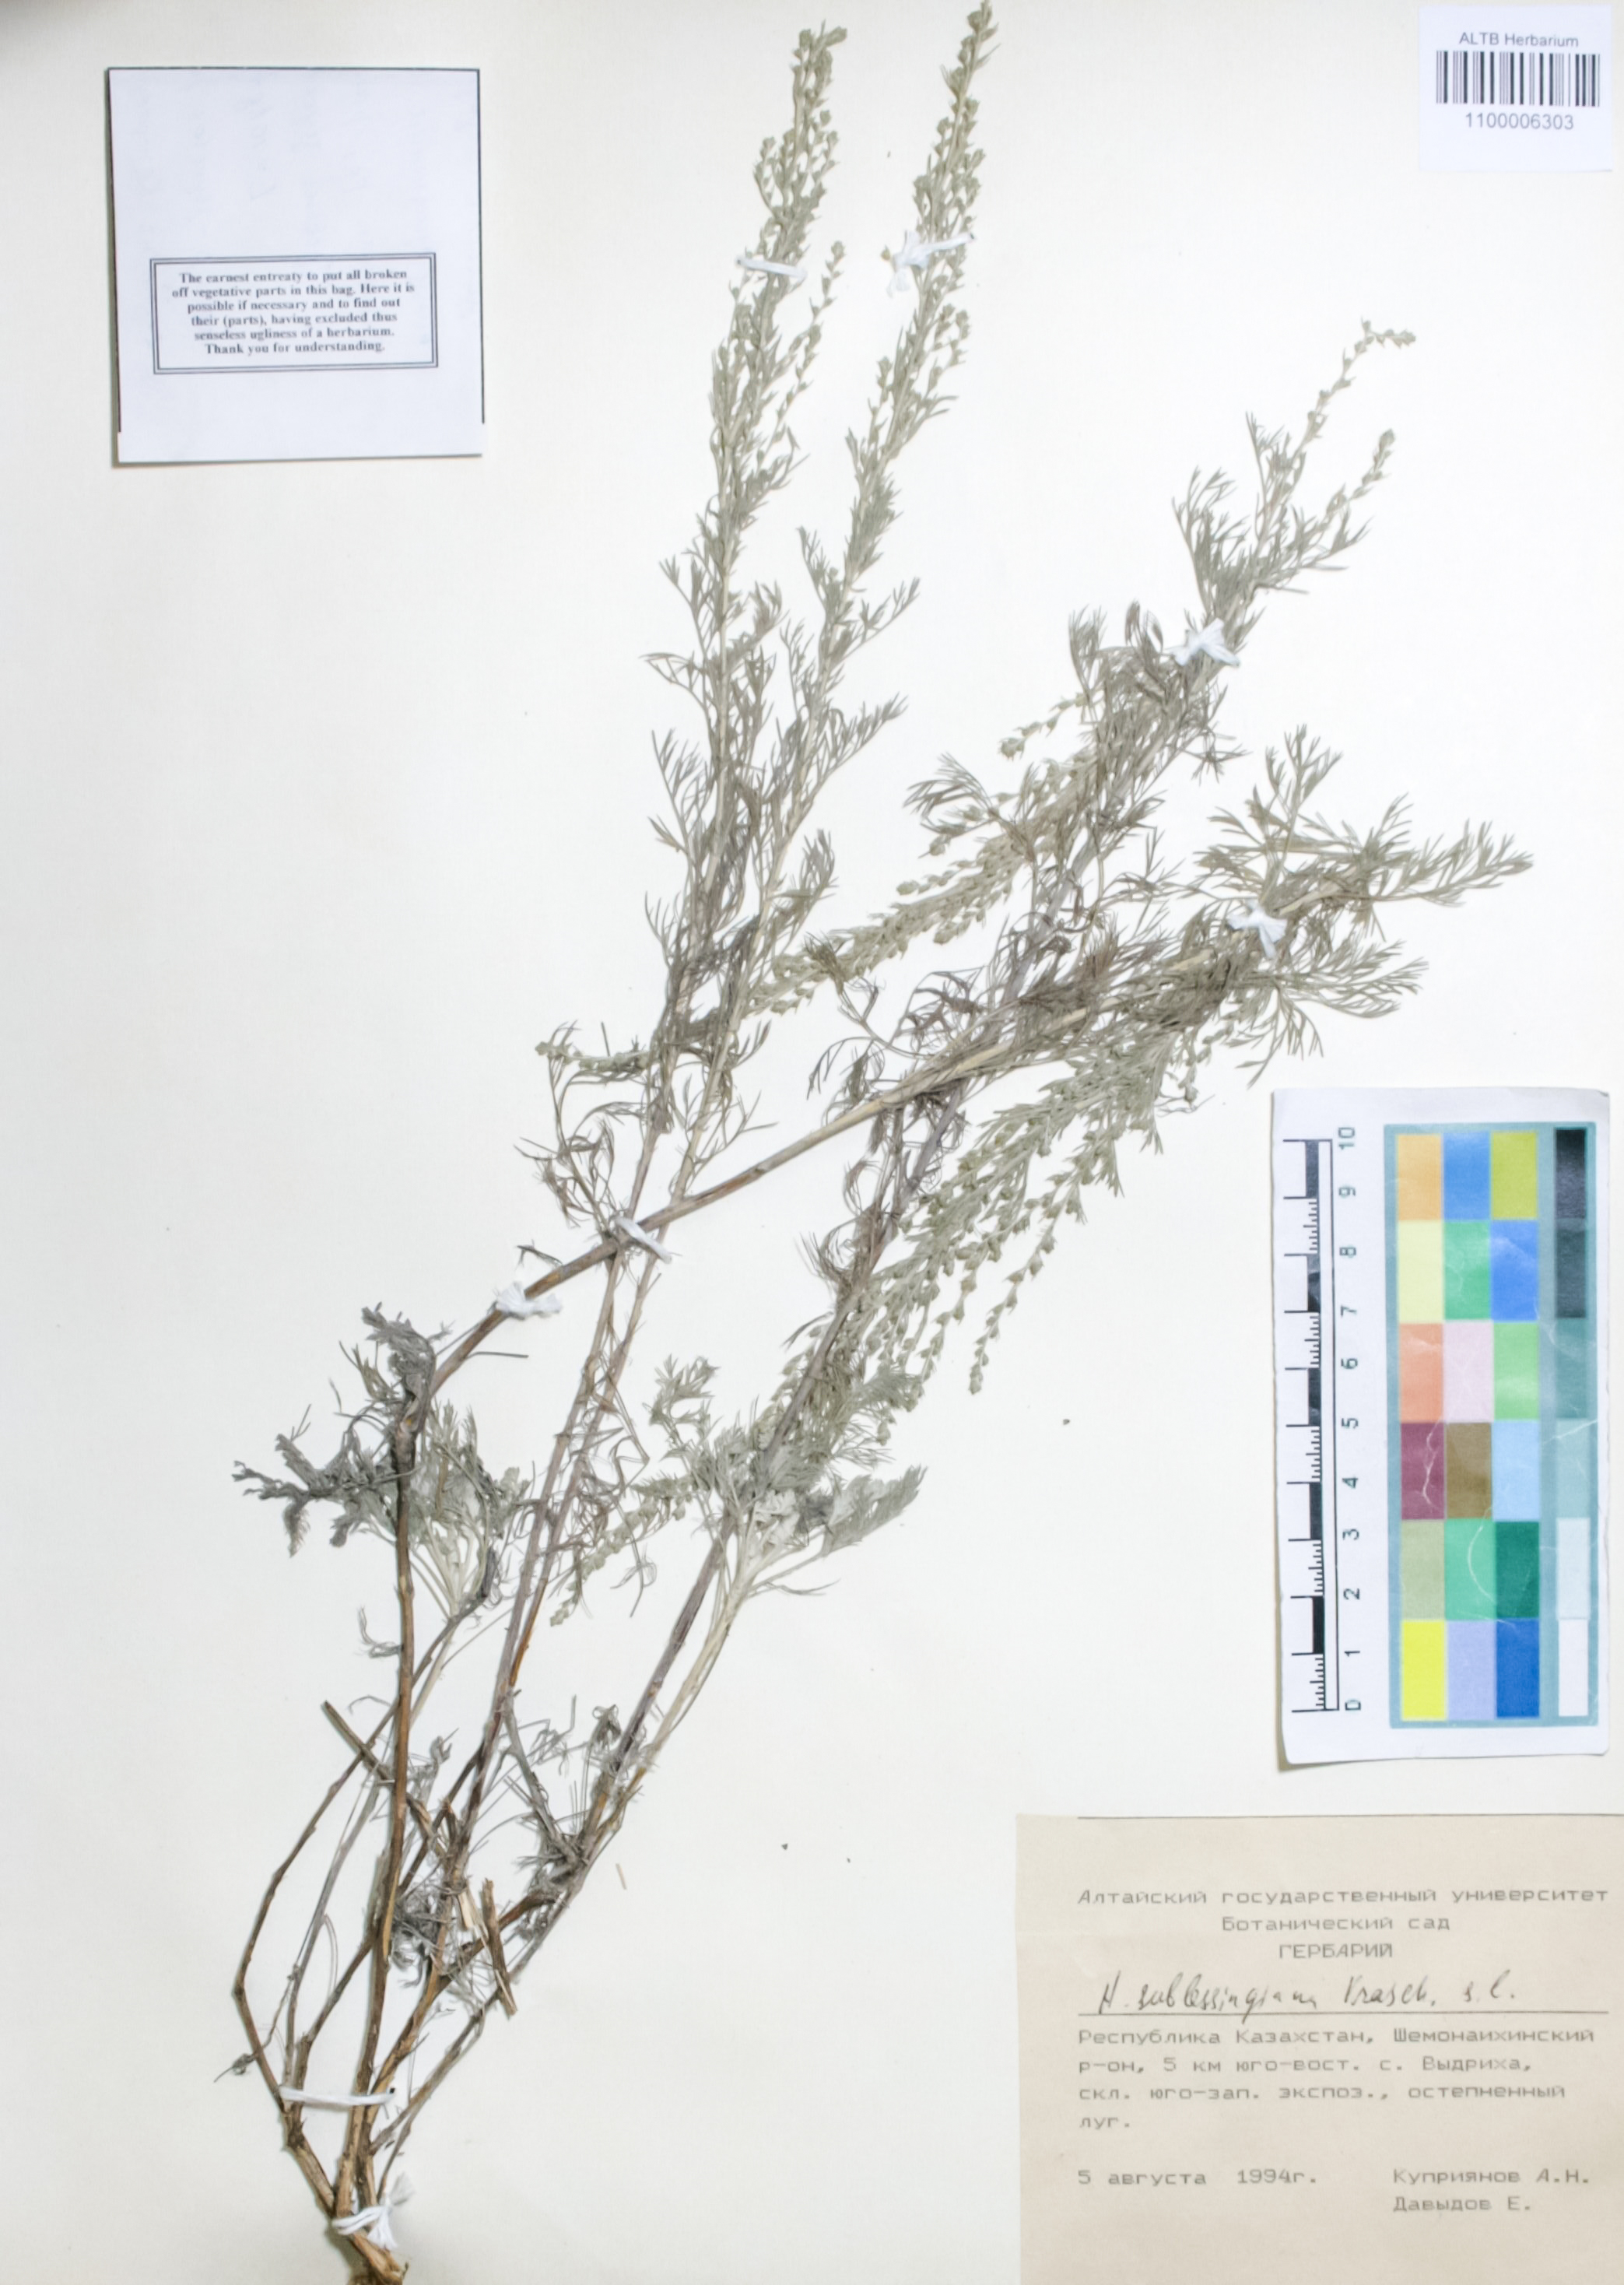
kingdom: Plantae
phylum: Tracheophyta
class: Magnoliopsida
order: Asterales
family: Asteraceae
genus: Artemisia
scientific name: Artemisia sublessingiana
